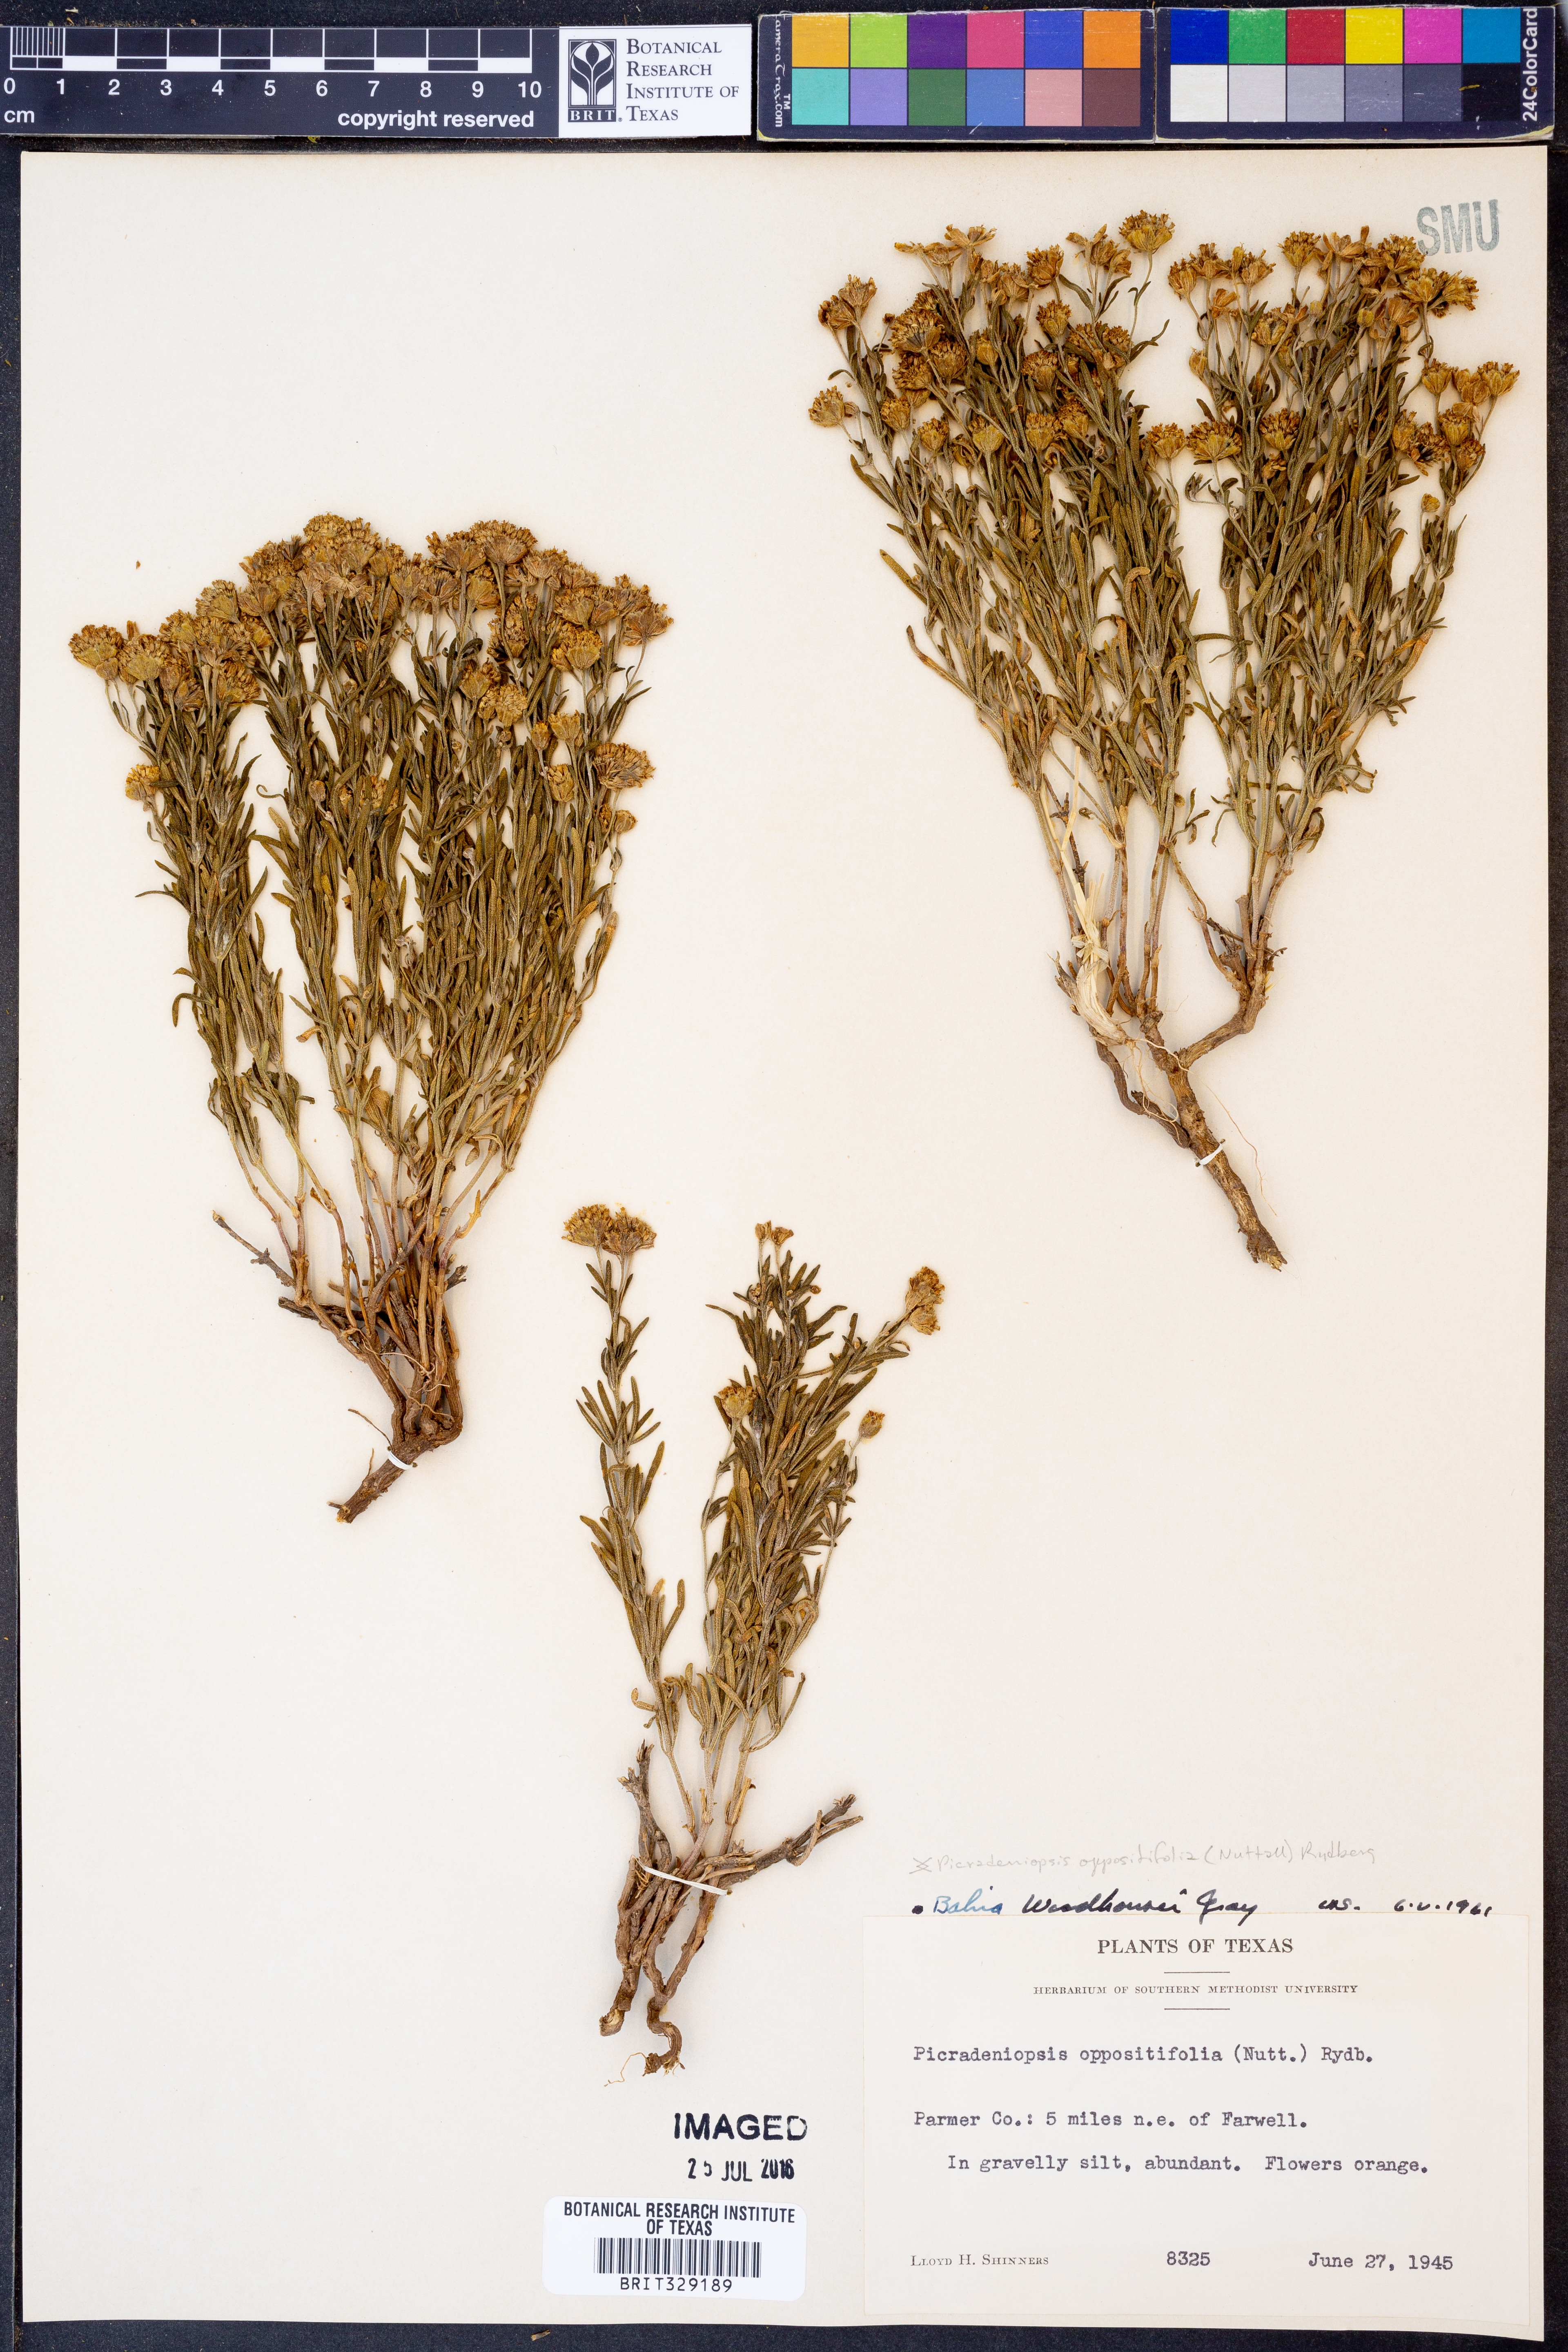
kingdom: Plantae
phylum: Tracheophyta
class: Magnoliopsida
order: Asterales
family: Asteraceae
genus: Picradeniopsis
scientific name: Picradeniopsis woodhousei
